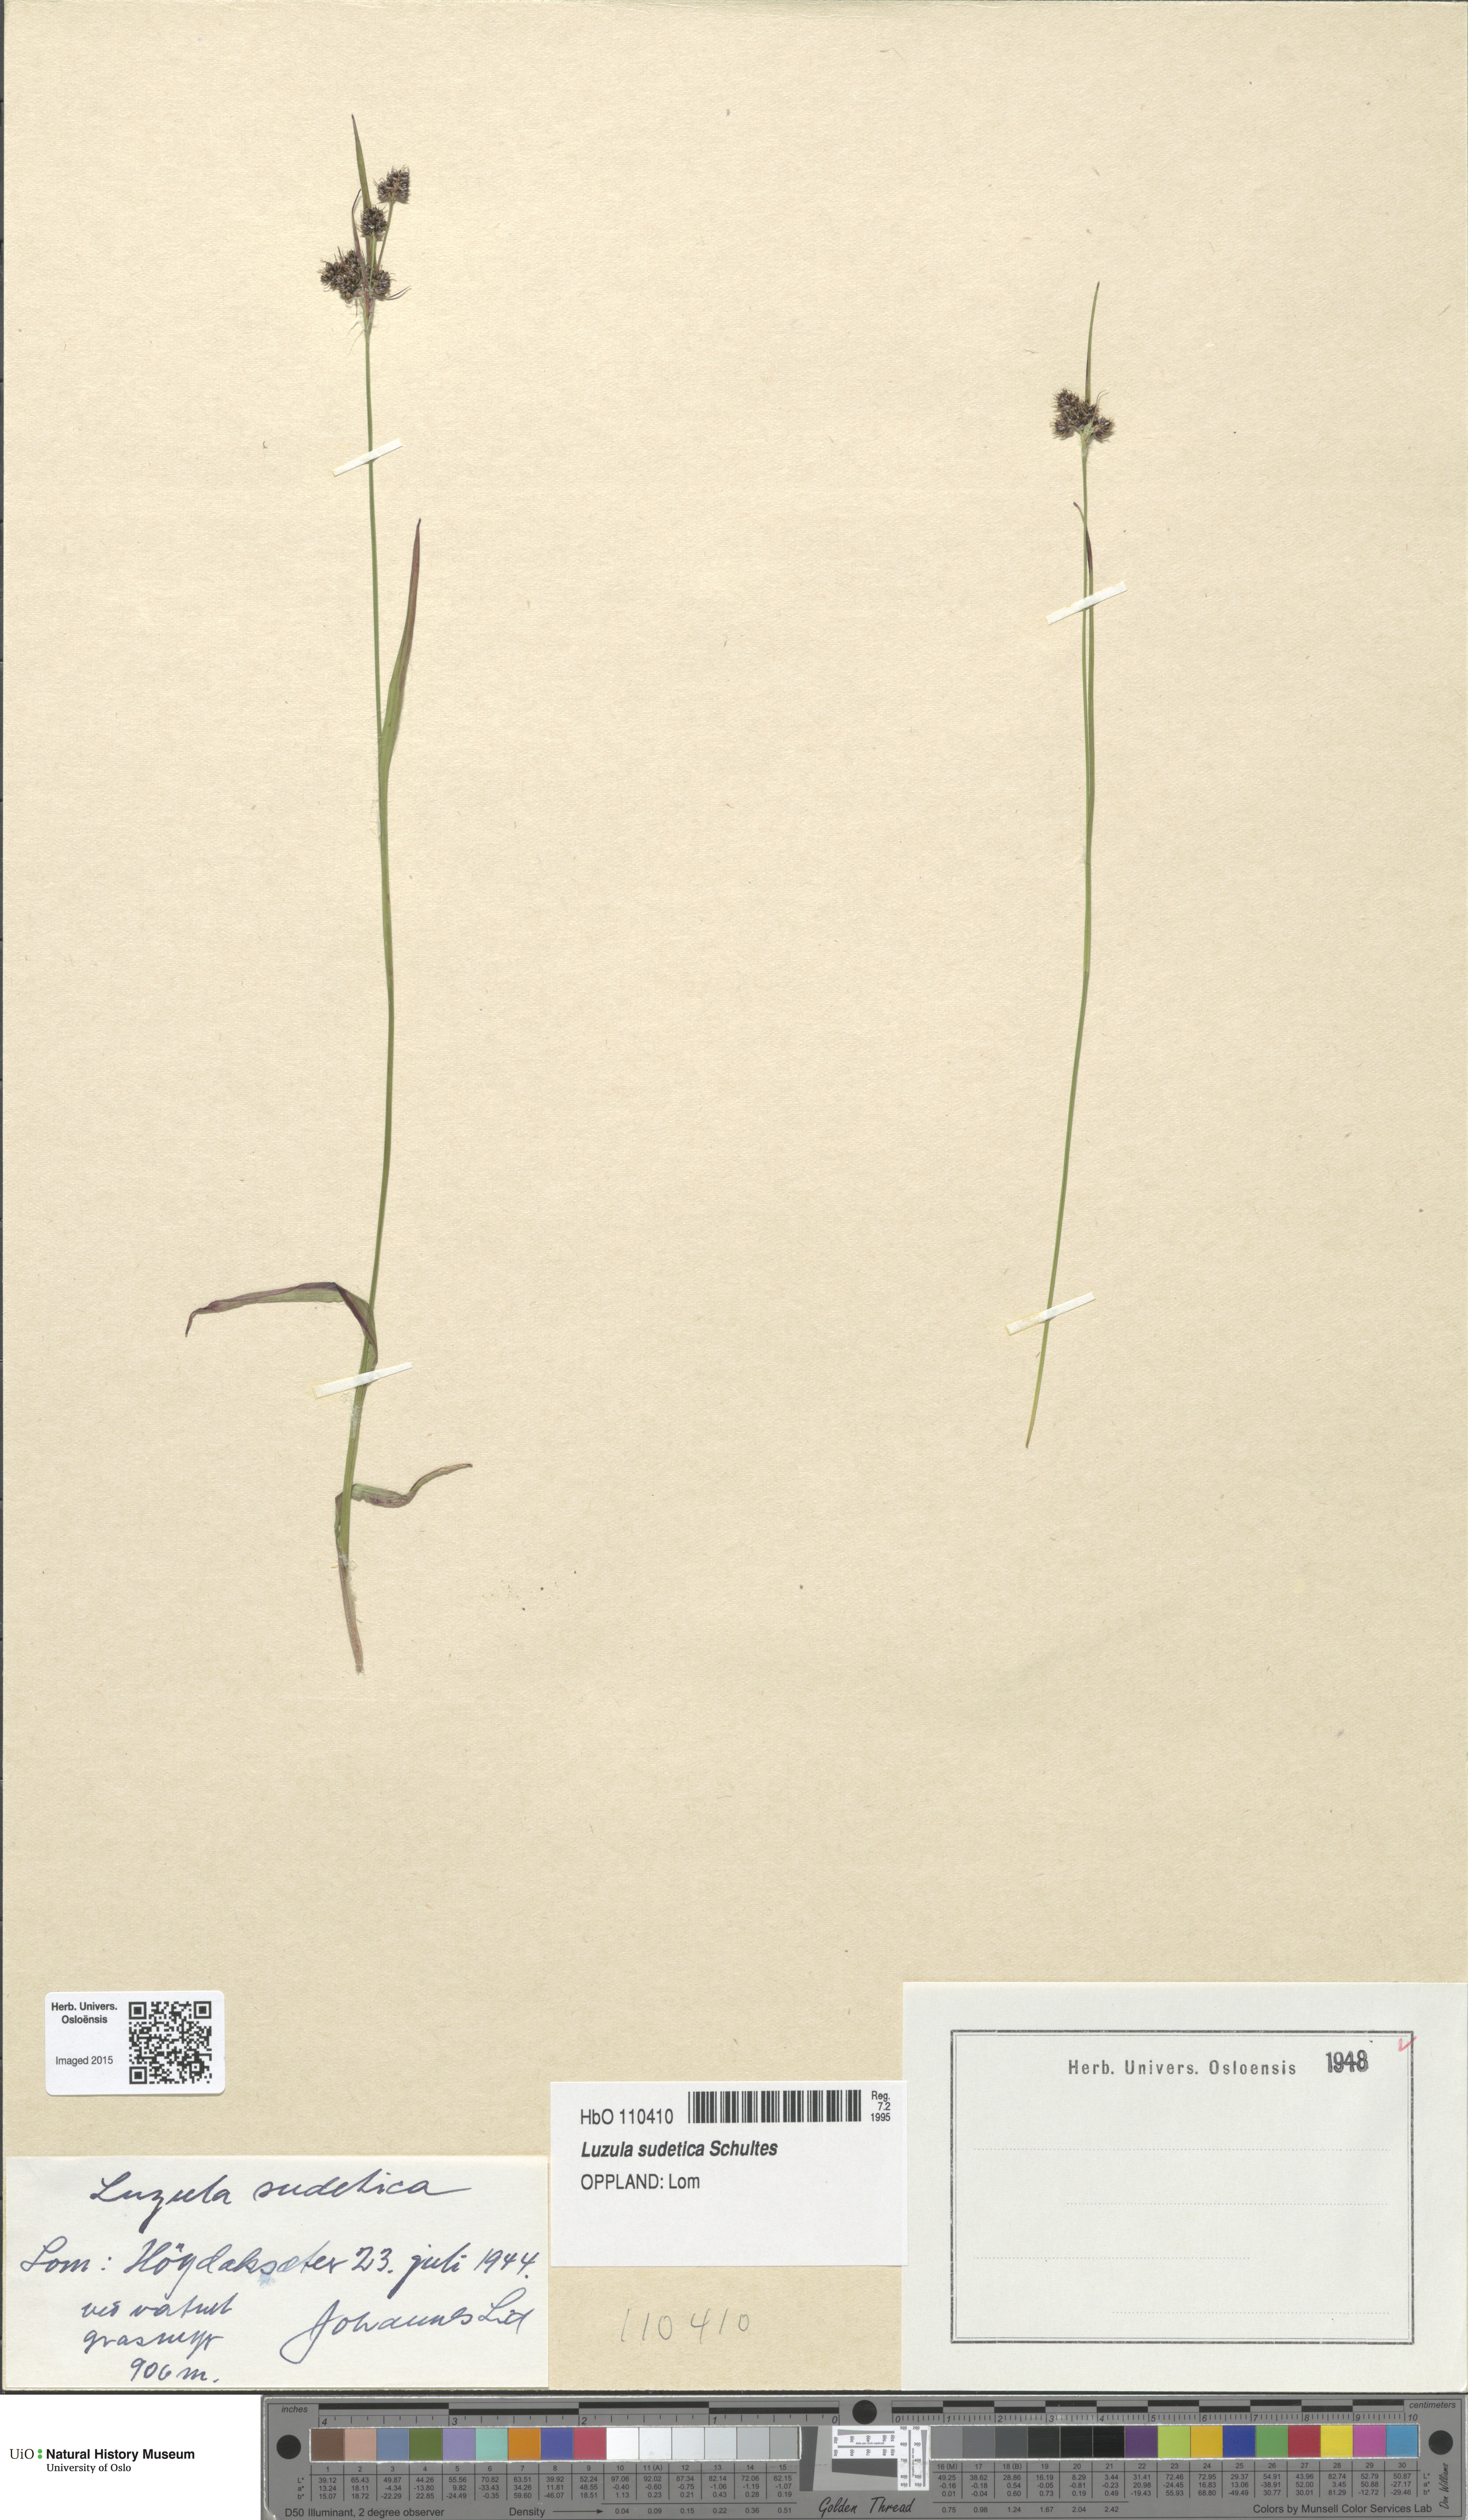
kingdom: Plantae
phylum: Tracheophyta
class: Liliopsida
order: Poales
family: Juncaceae
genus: Luzula
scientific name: Luzula sudetica
